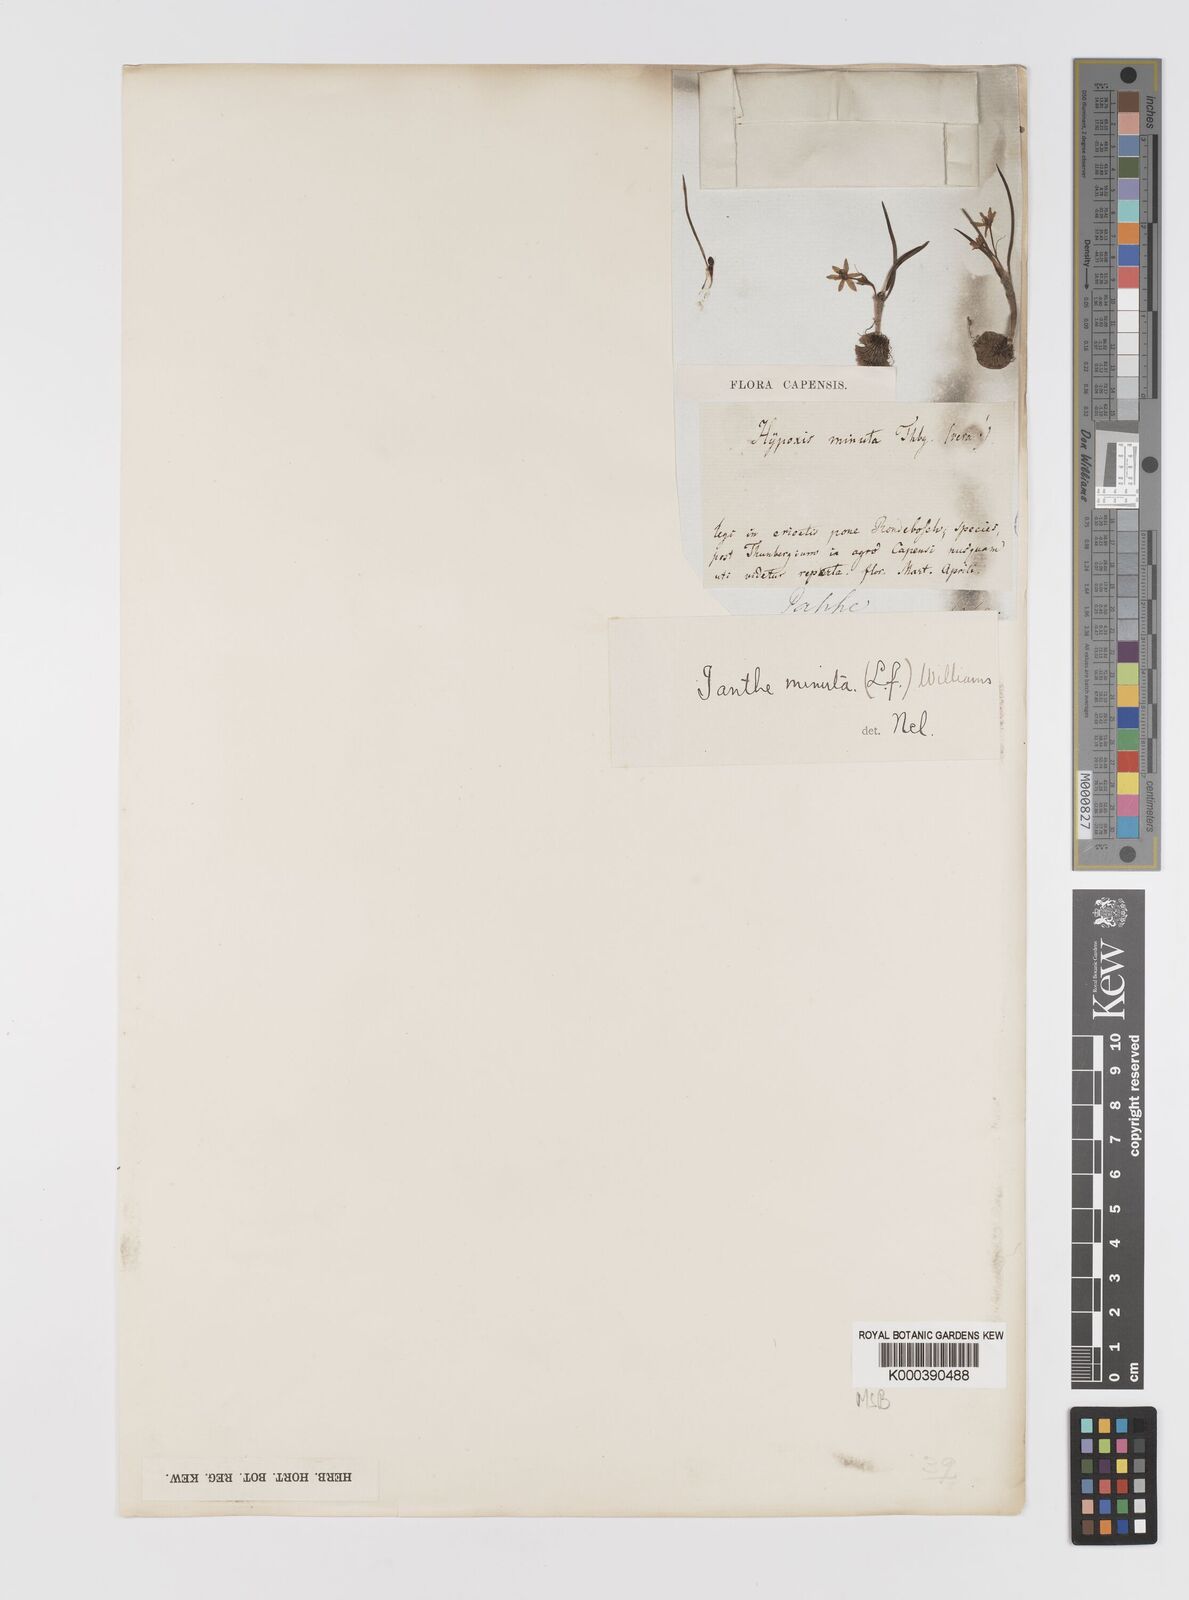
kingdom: Plantae
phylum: Tracheophyta
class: Liliopsida
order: Asparagales
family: Hypoxidaceae
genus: Pauridia
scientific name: Pauridia pygmaea
